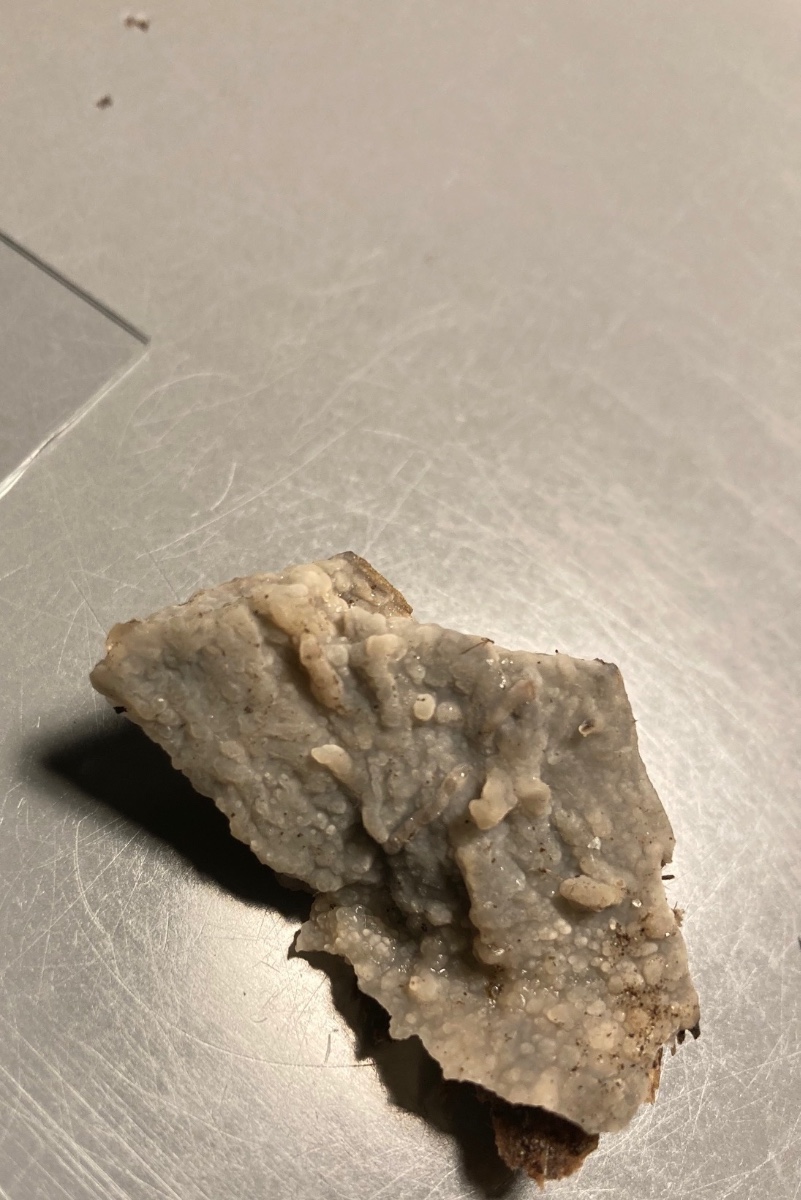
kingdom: Fungi
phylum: Basidiomycota
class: Agaricomycetes
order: Polyporales
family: Phanerochaetaceae
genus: Phlebiopsis
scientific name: Phlebiopsis gigantea
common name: kæmpebarksvamp
